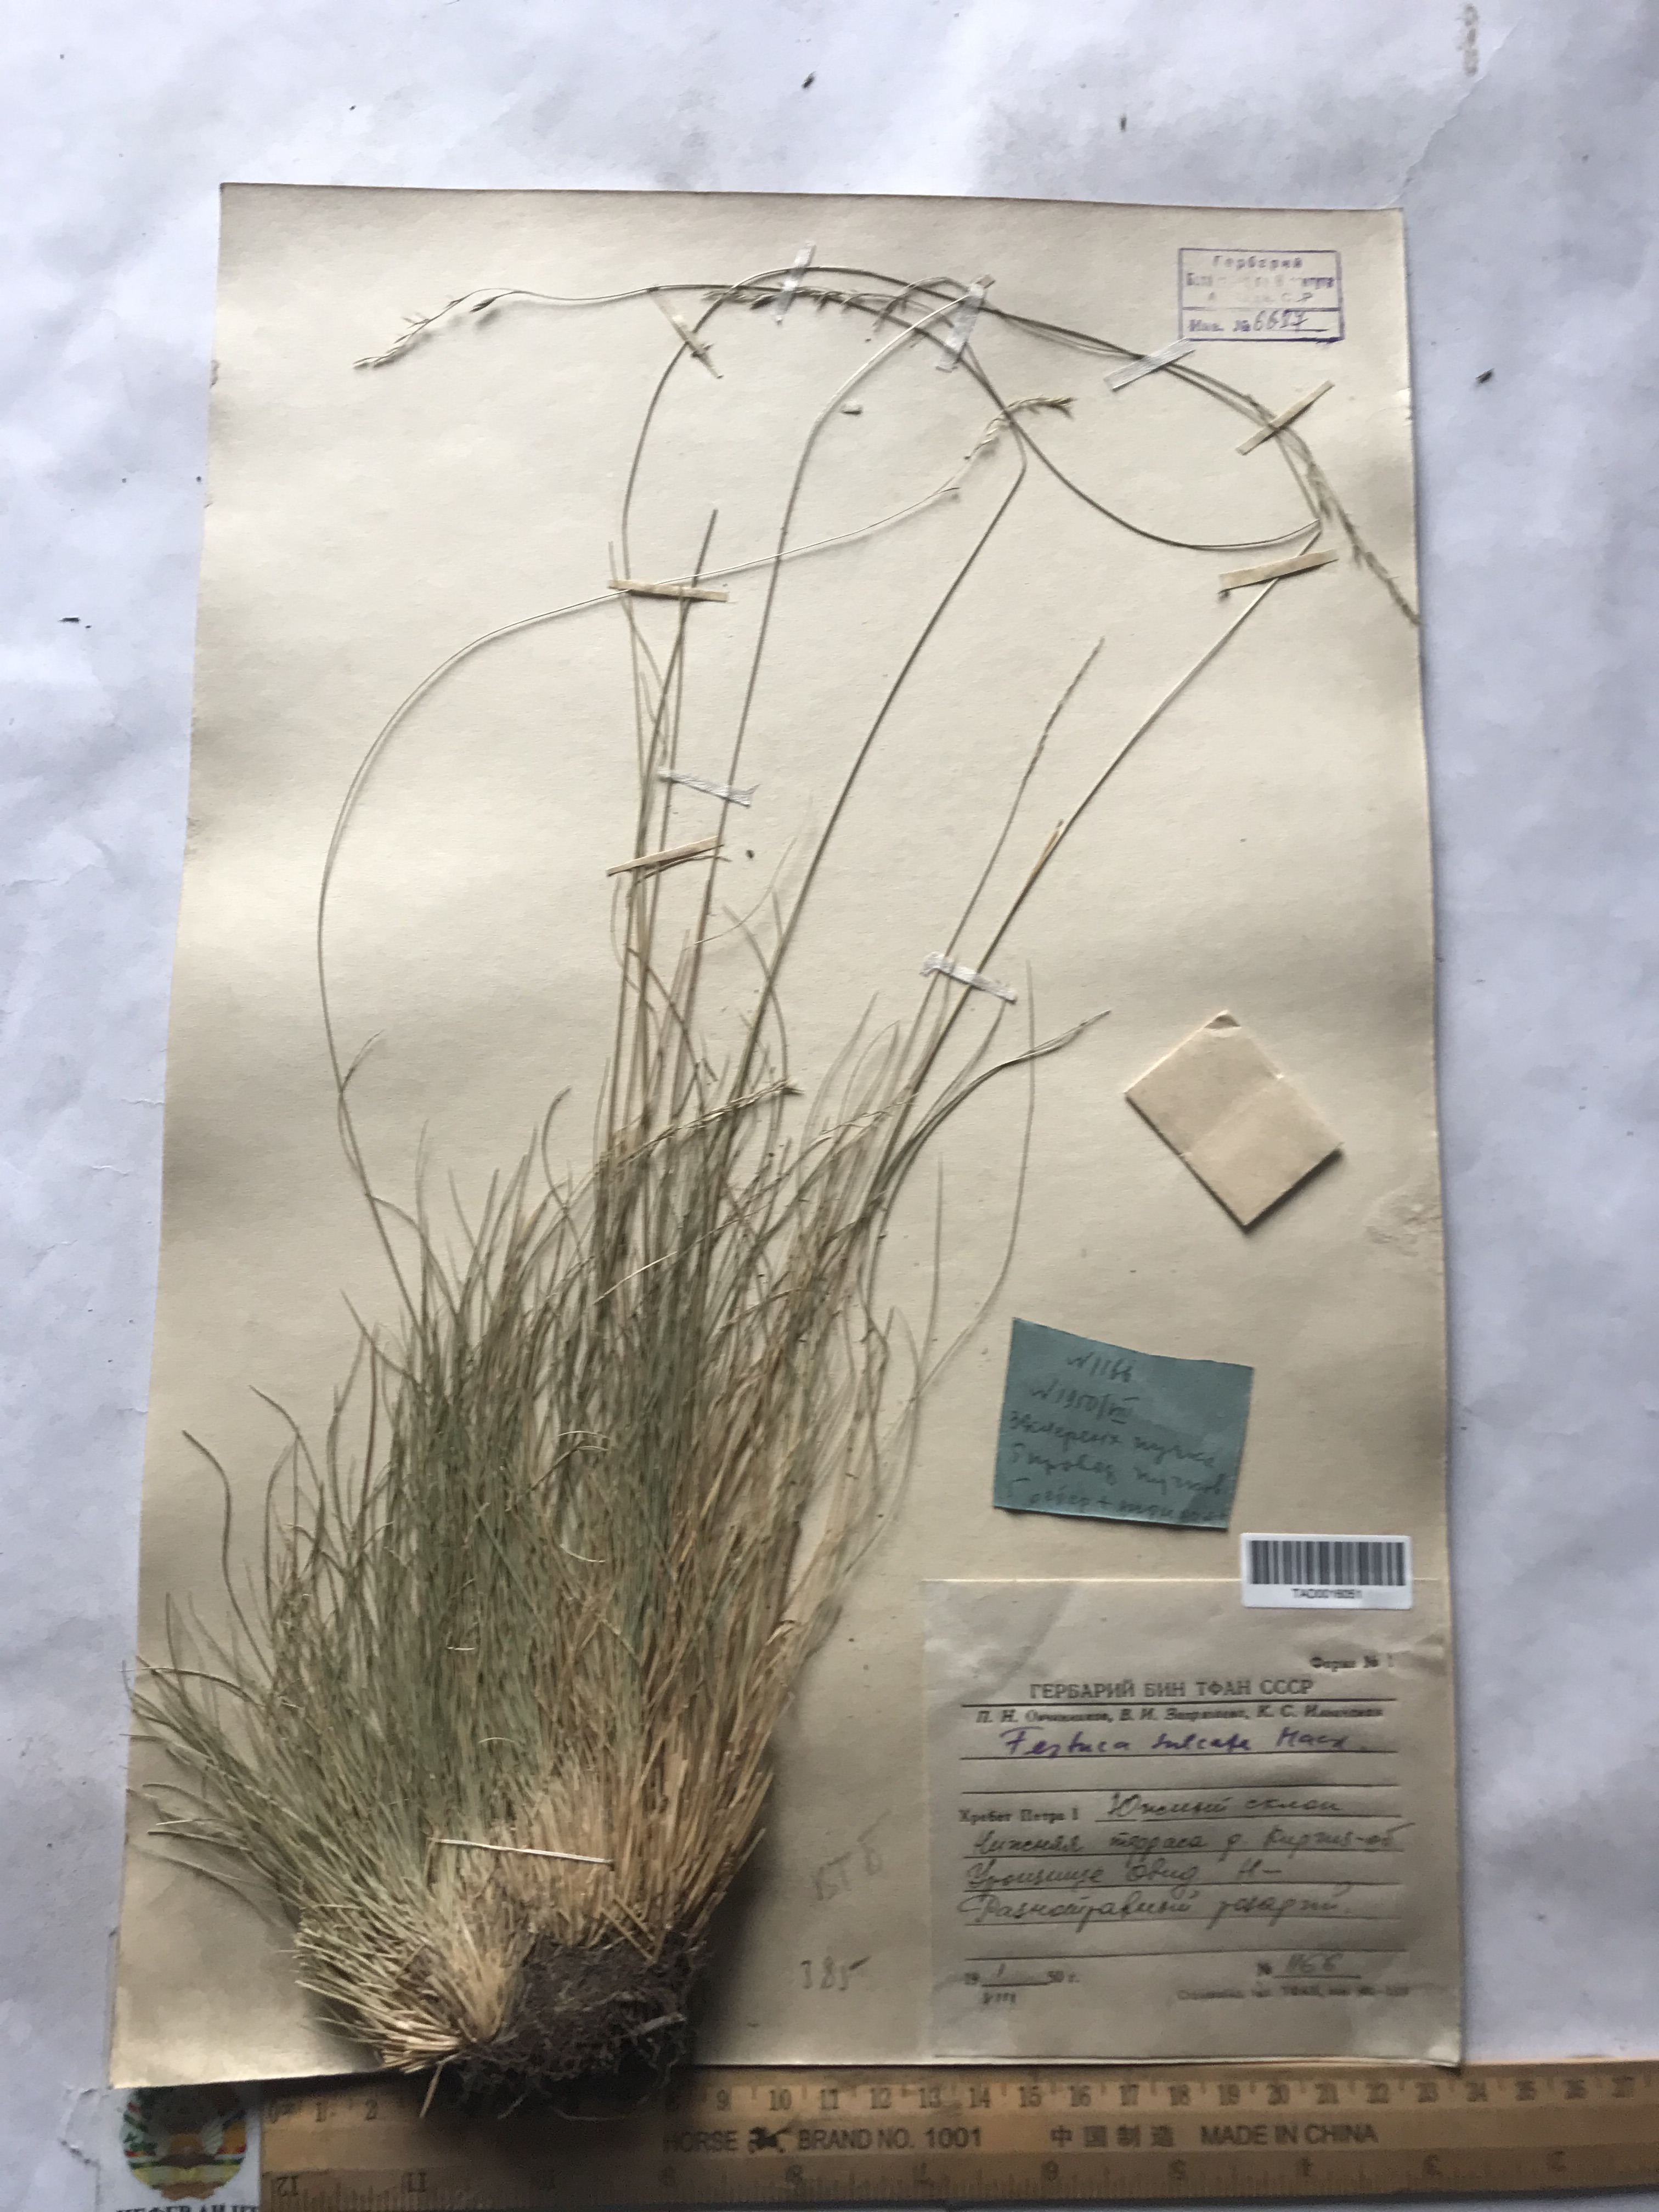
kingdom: Plantae
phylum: Tracheophyta
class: Liliopsida
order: Poales
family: Poaceae
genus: Festuca
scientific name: Festuca sulcata
